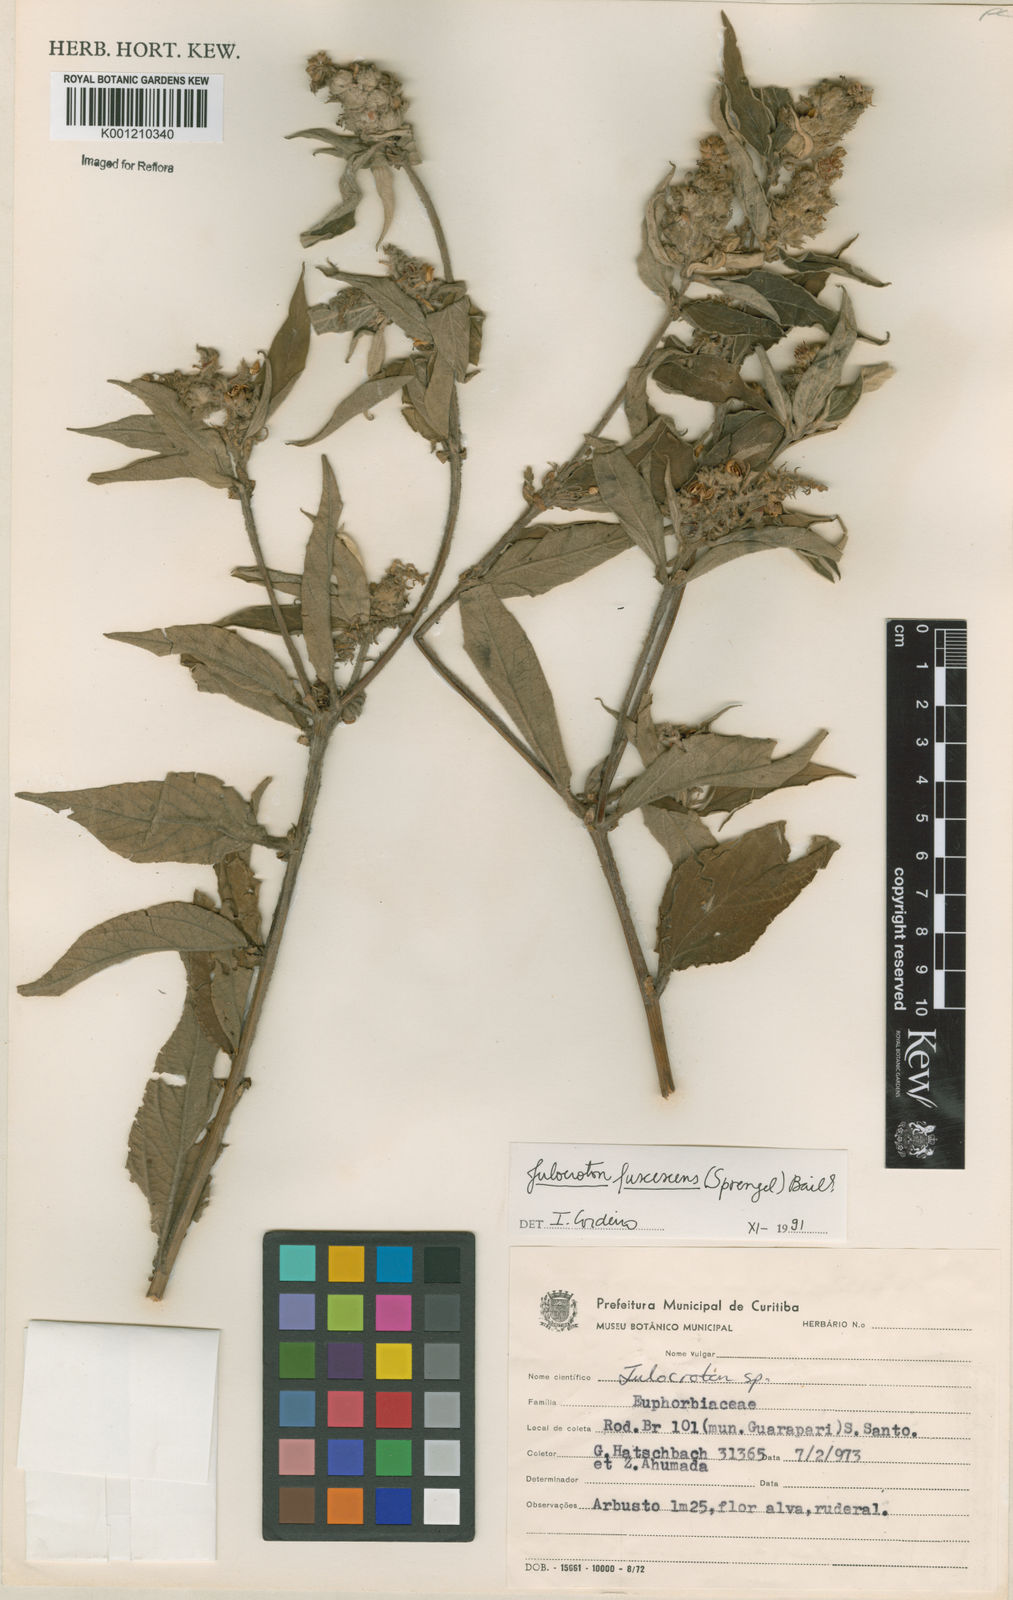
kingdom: Plantae
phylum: Tracheophyta
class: Magnoliopsida
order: Malpighiales
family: Euphorbiaceae
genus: Croton
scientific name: Croton gnaphaloides
